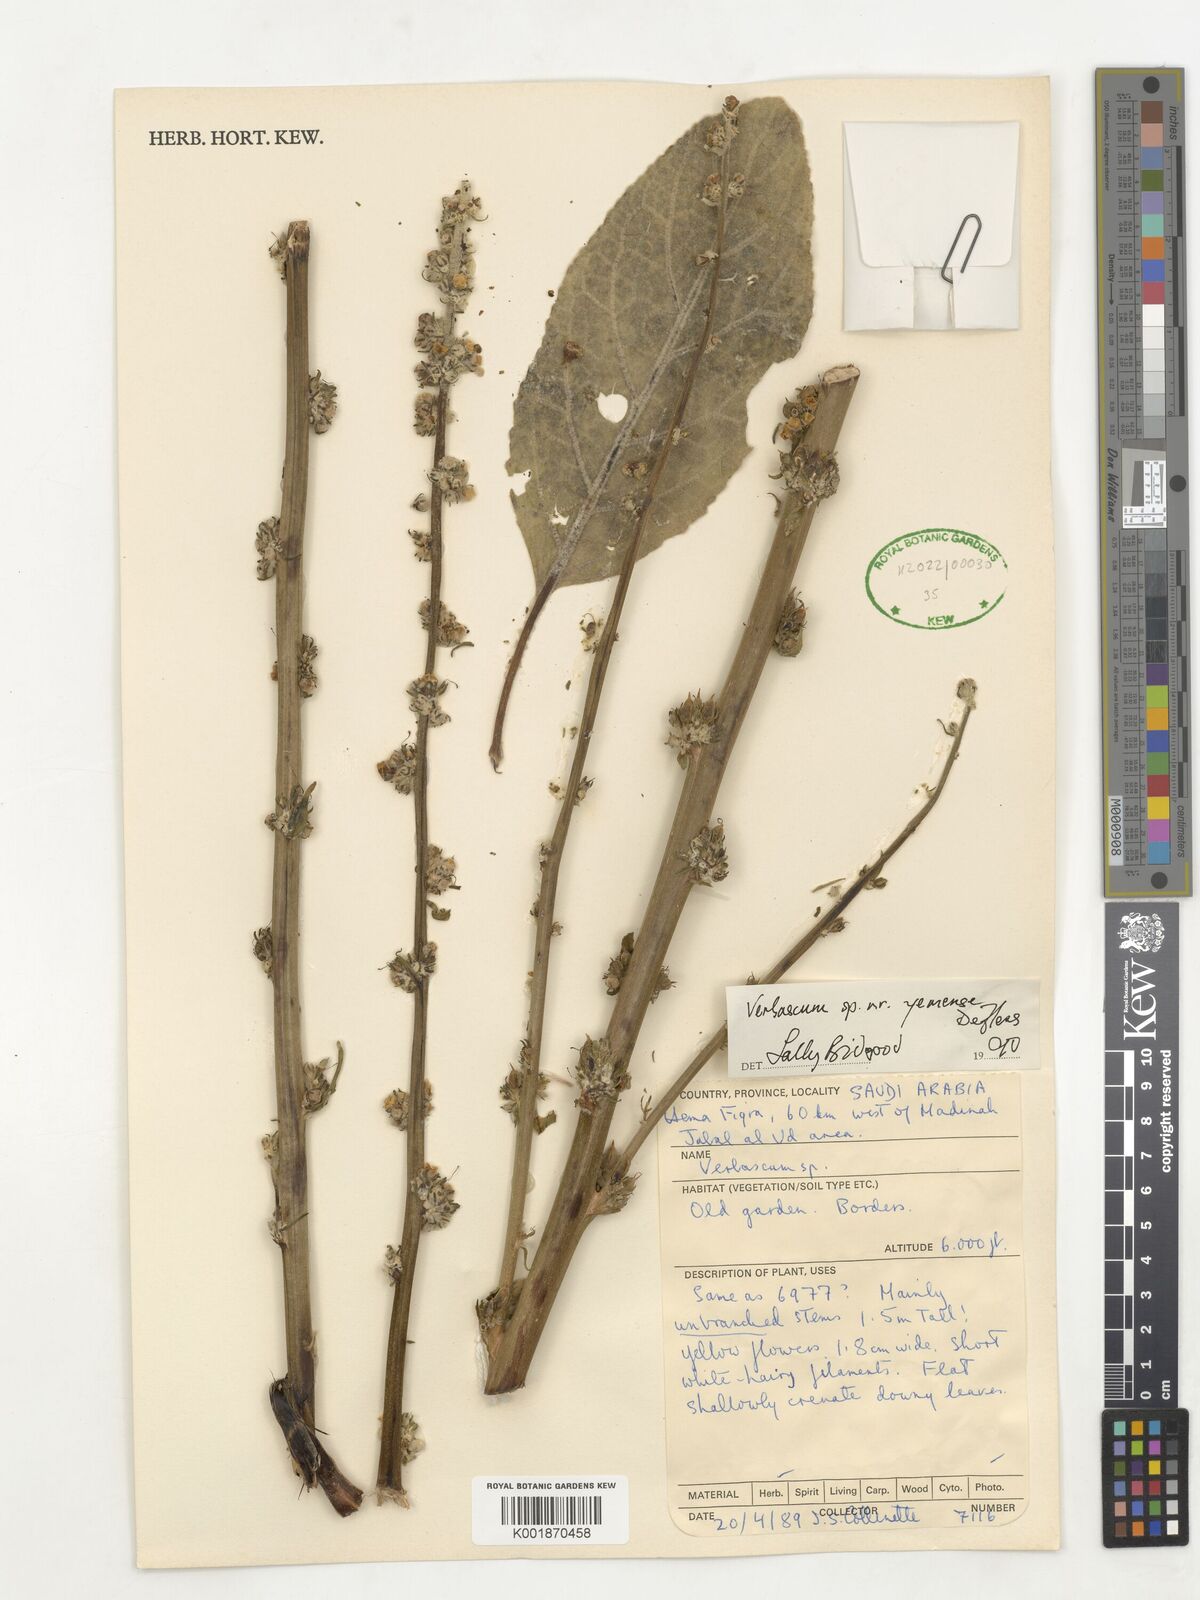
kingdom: Plantae
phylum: Tracheophyta
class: Magnoliopsida
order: Lamiales
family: Scrophulariaceae
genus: Verbascum
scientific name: Verbascum
